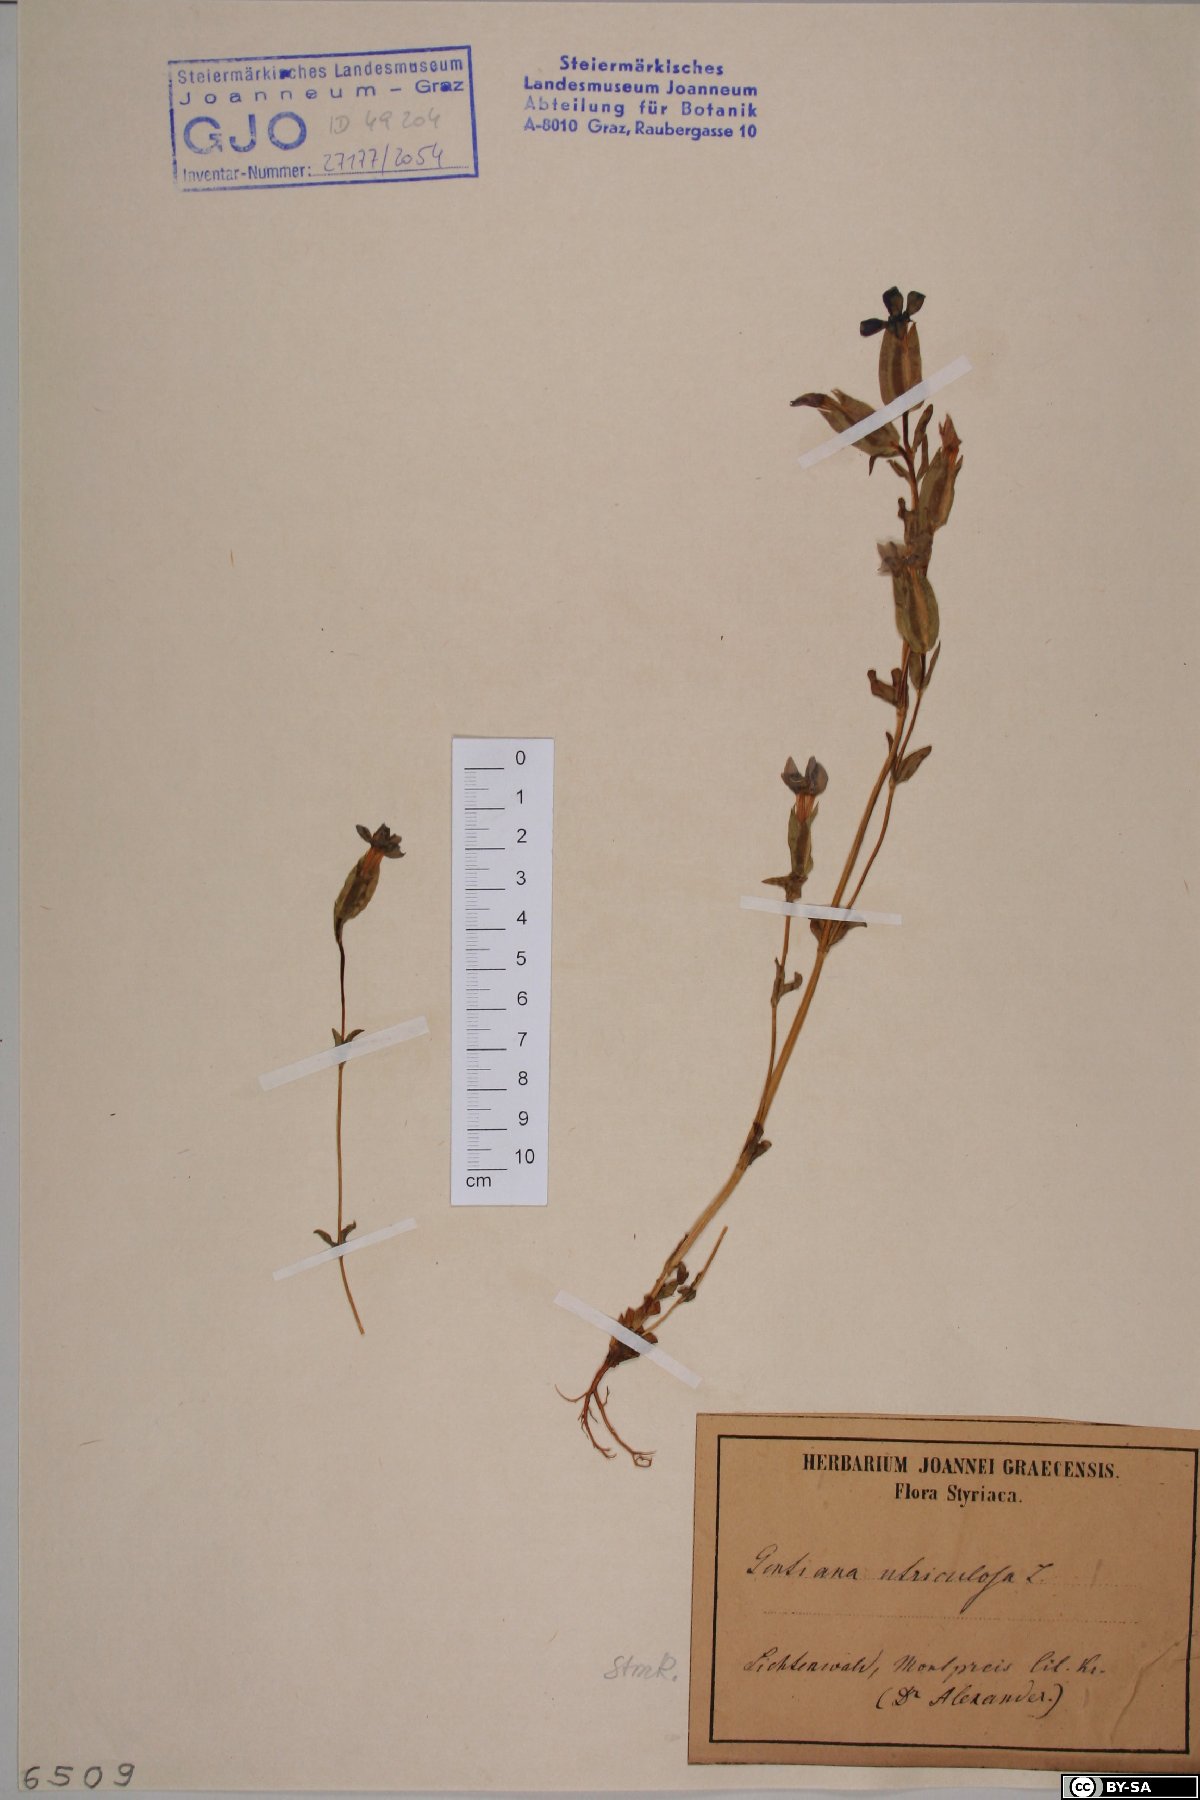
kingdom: Plantae
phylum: Tracheophyta
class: Magnoliopsida
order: Gentianales
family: Gentianaceae
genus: Gentiana
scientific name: Gentiana utriculosa
